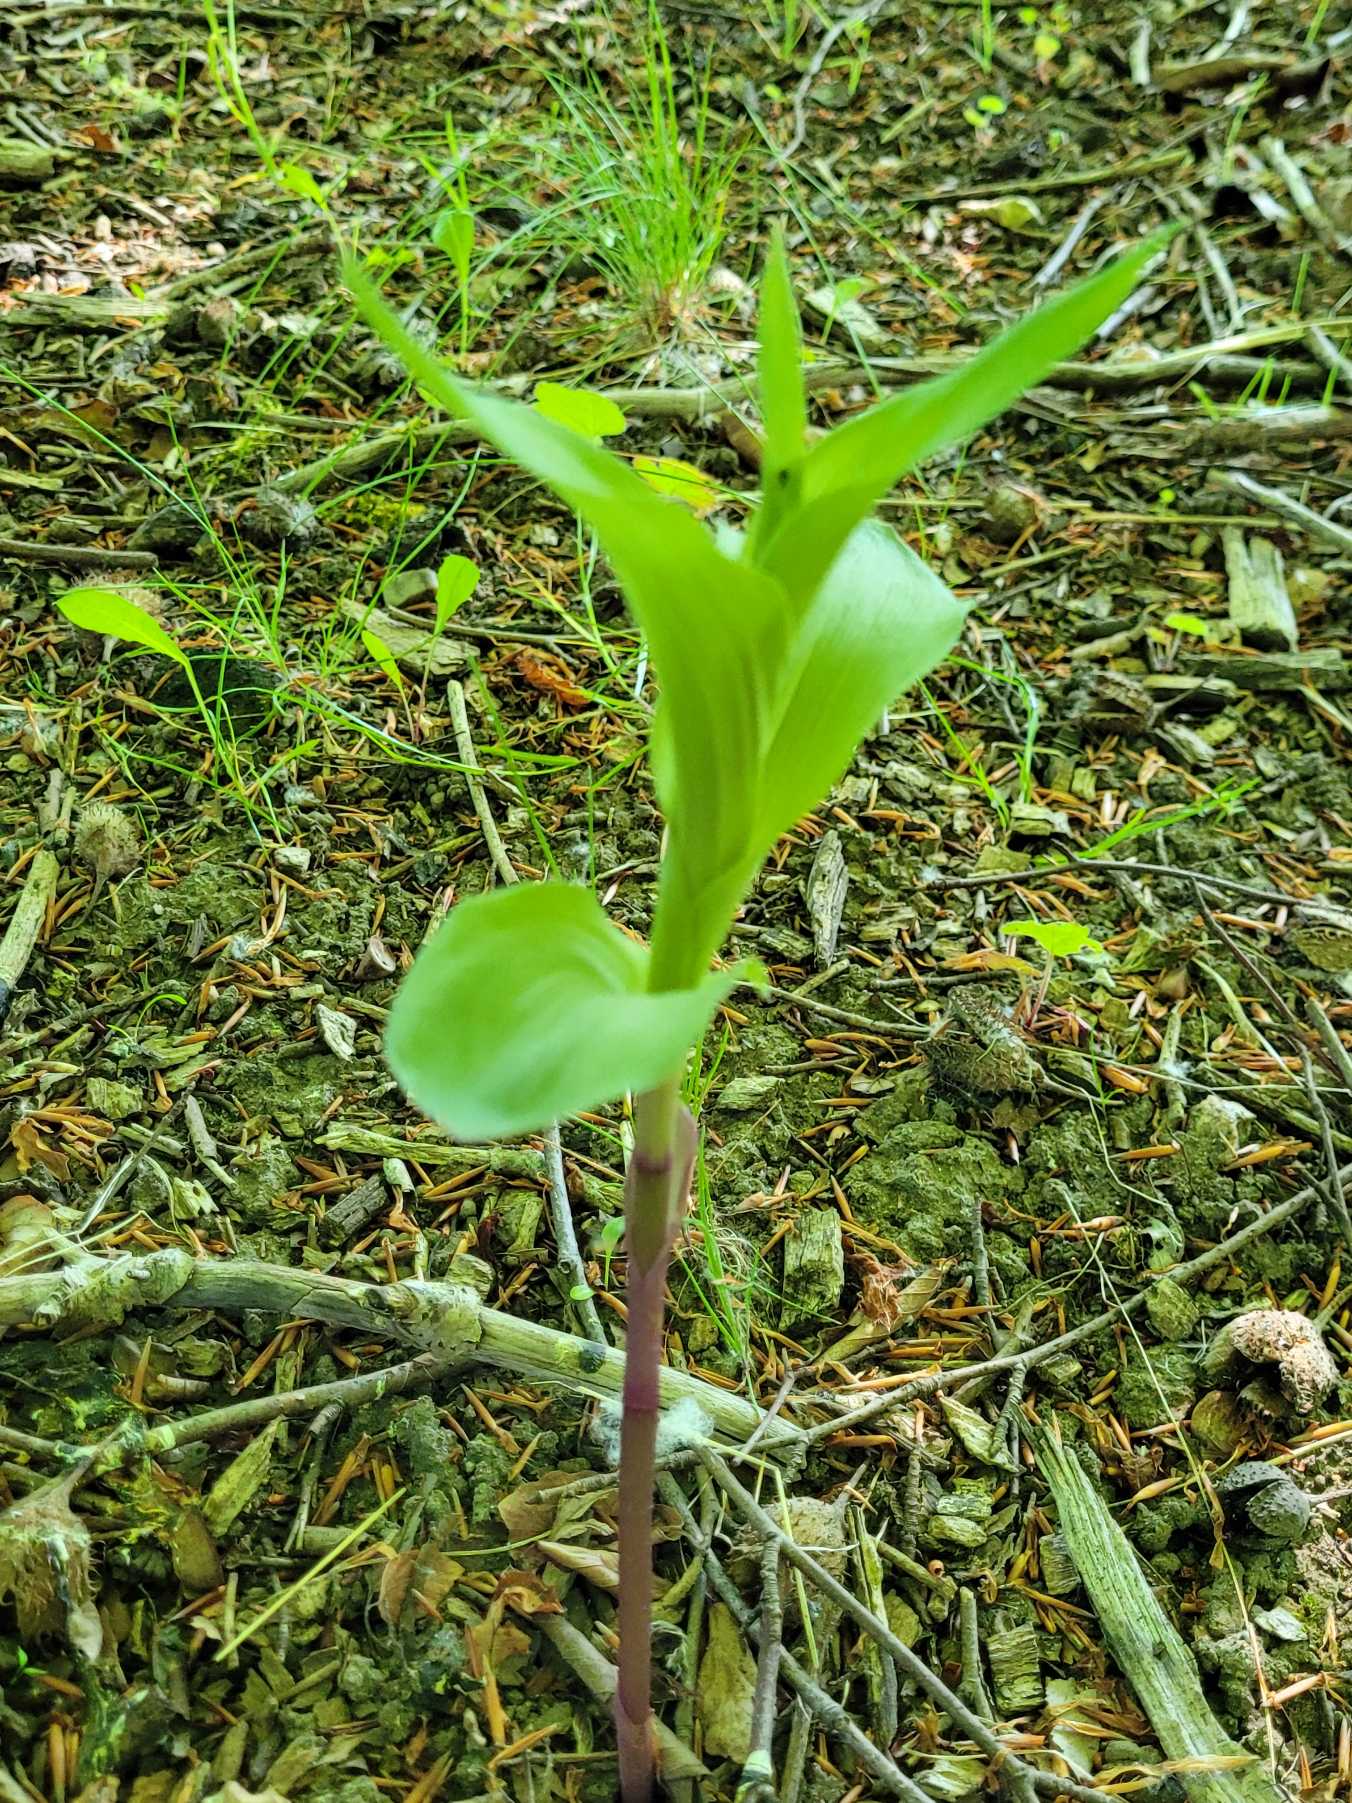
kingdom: Plantae
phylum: Tracheophyta
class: Liliopsida
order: Asparagales
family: Orchidaceae
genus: Epipactis
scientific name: Epipactis helleborine
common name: Skov-hullæbe
